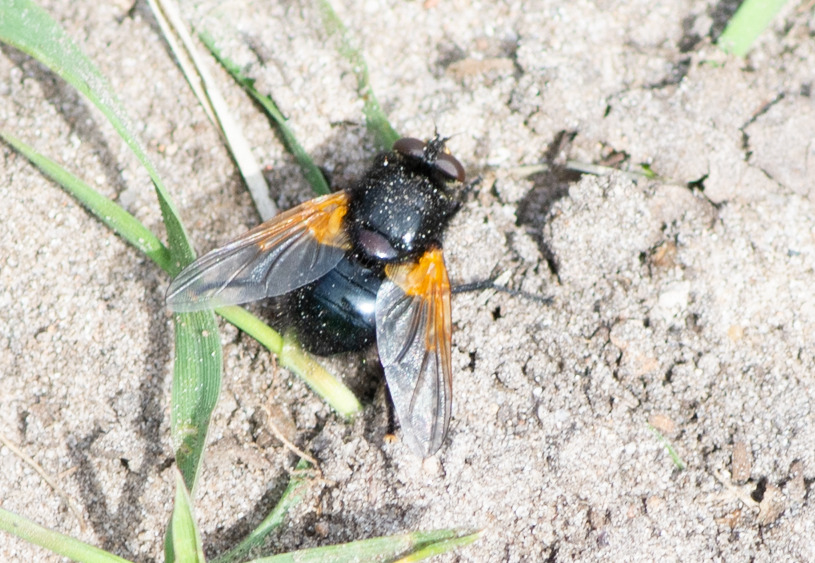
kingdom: Animalia
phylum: Arthropoda
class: Insecta
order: Diptera
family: Muscidae
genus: Mesembrina
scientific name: Mesembrina meridiana
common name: Gulvinget flue
